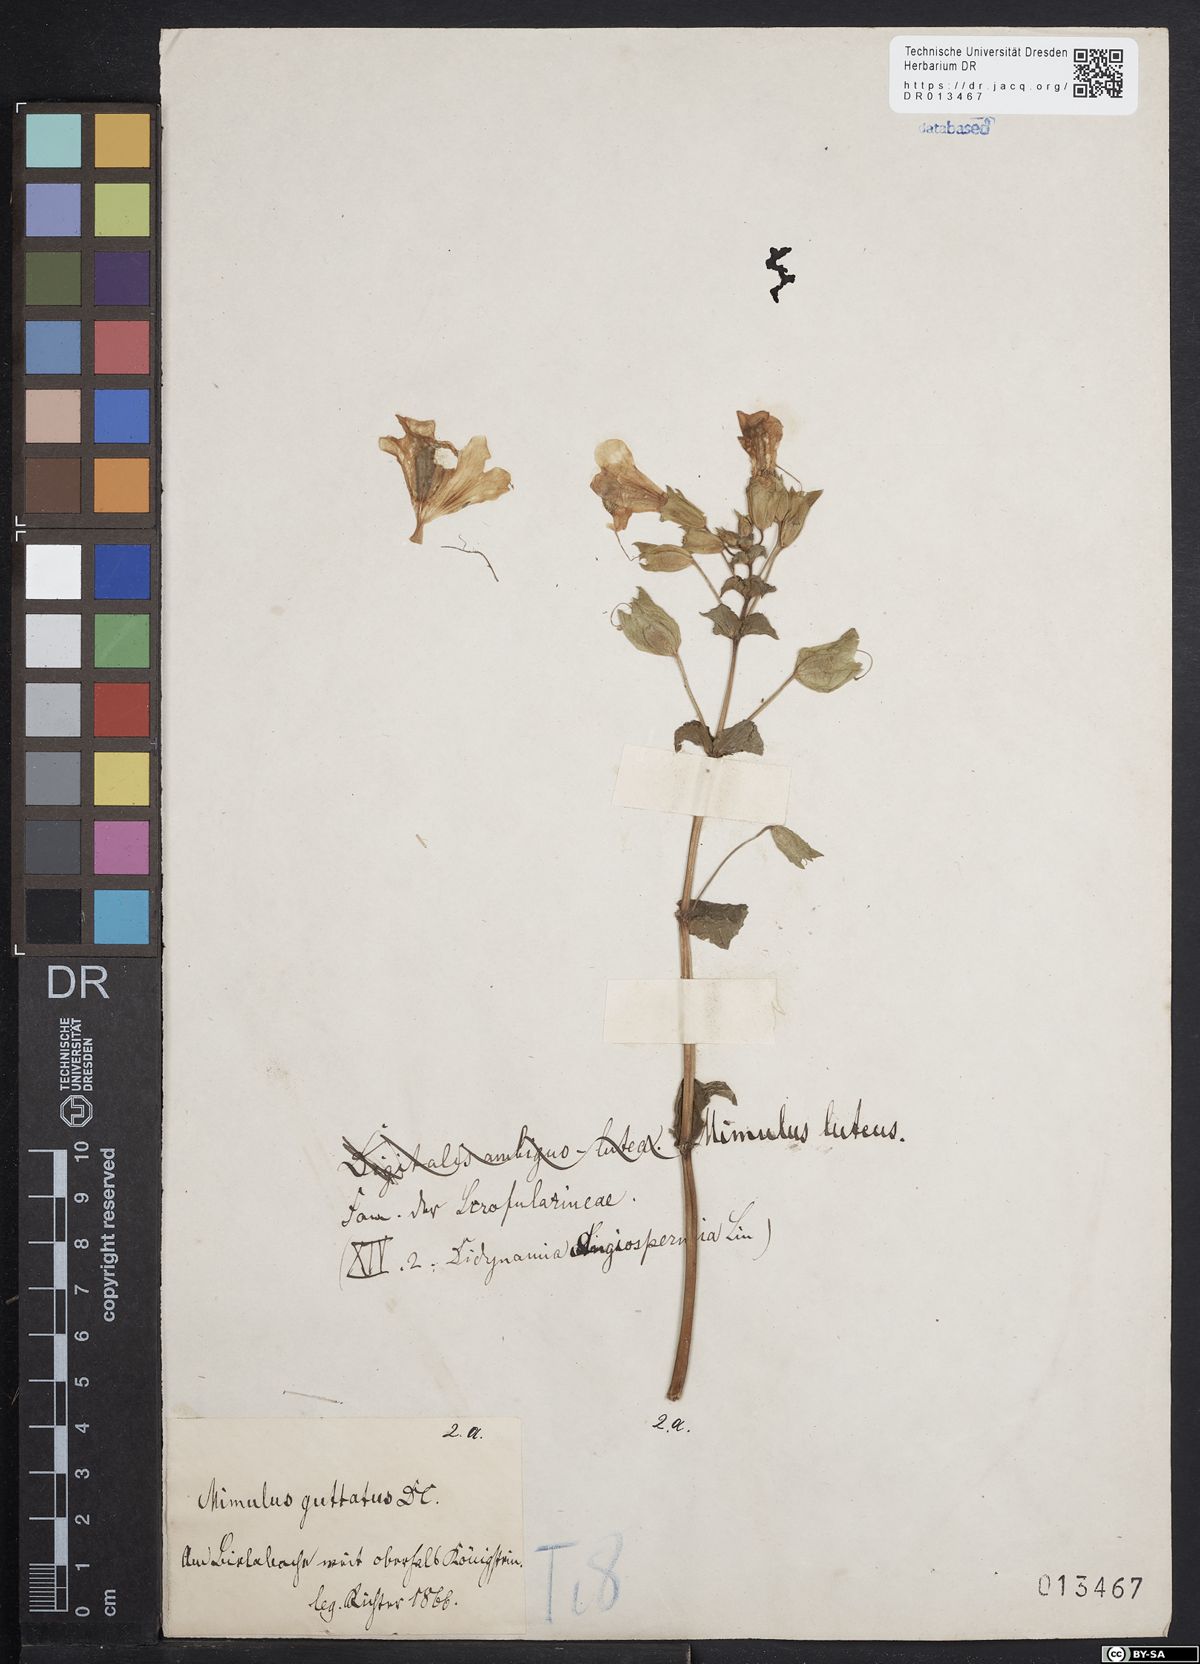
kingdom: Plantae
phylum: Tracheophyta
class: Magnoliopsida
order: Lamiales
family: Phrymaceae
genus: Erythranthe
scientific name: Erythranthe guttata
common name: Monkeyflower
